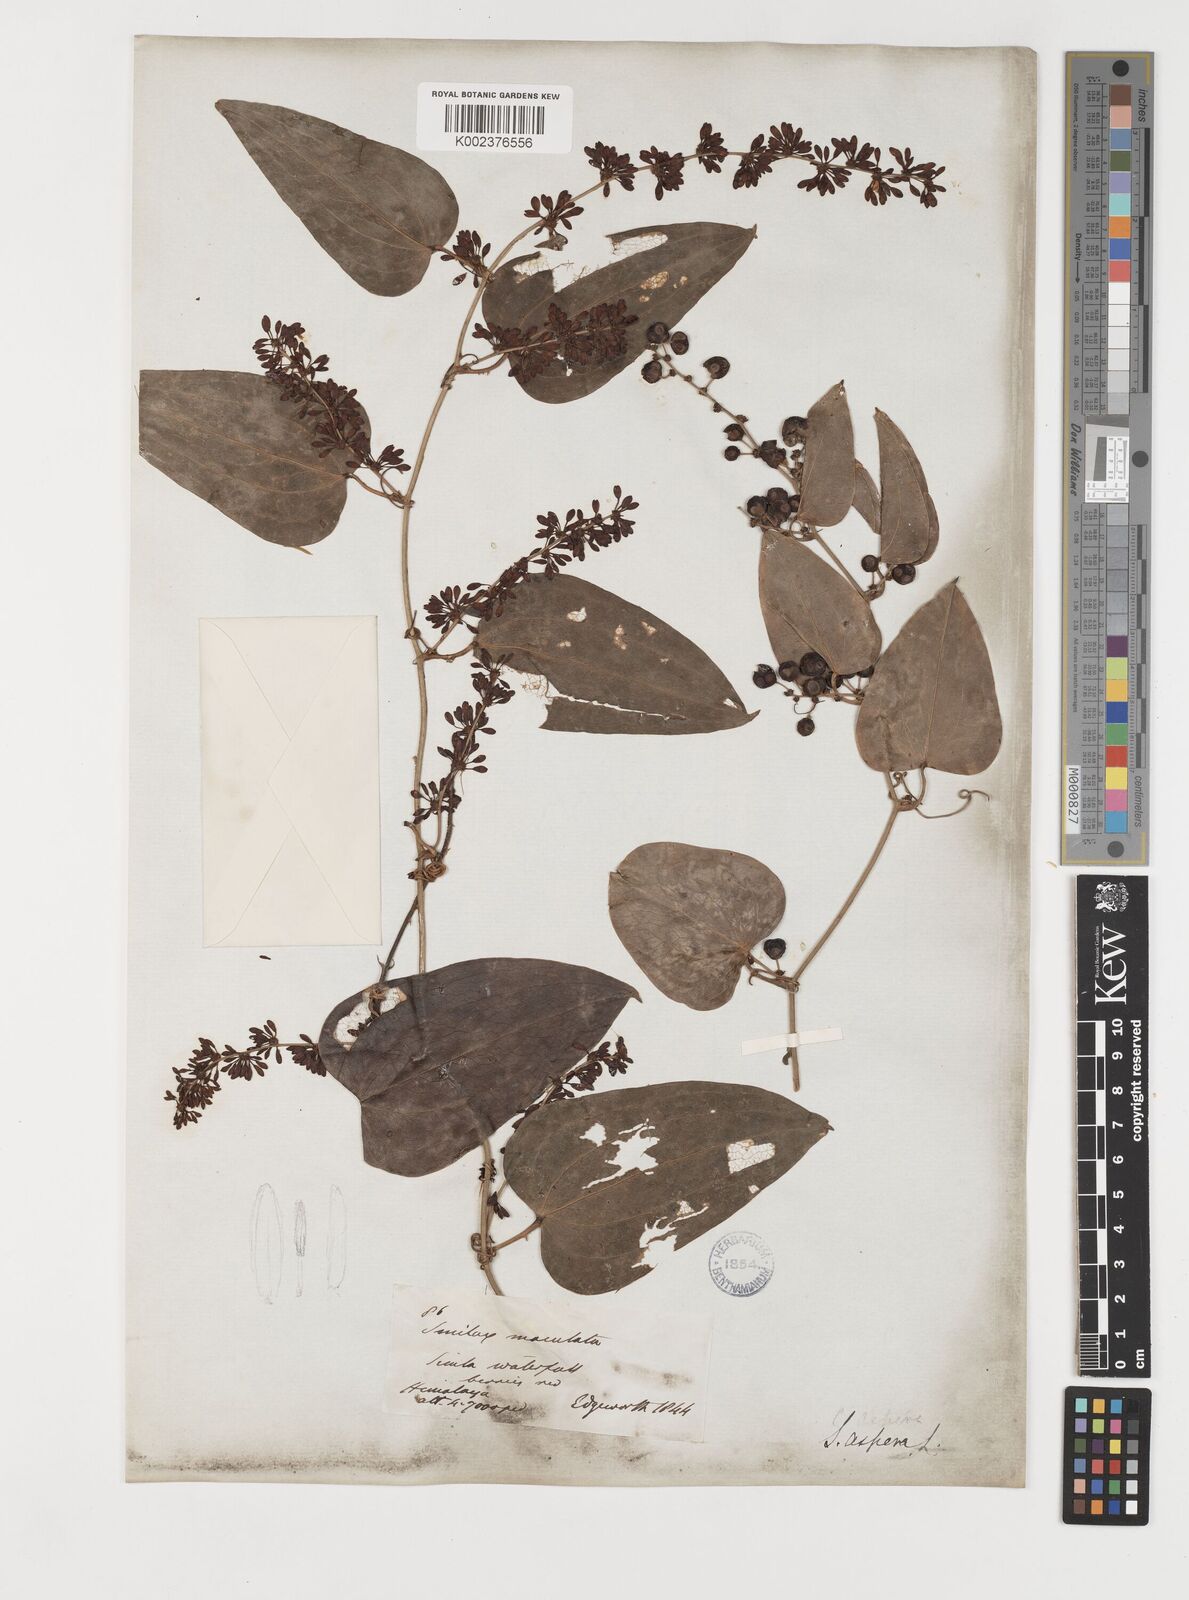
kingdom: Plantae
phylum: Tracheophyta
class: Liliopsida
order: Liliales
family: Smilacaceae
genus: Smilax
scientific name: Smilax aspera
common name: Common smilax
